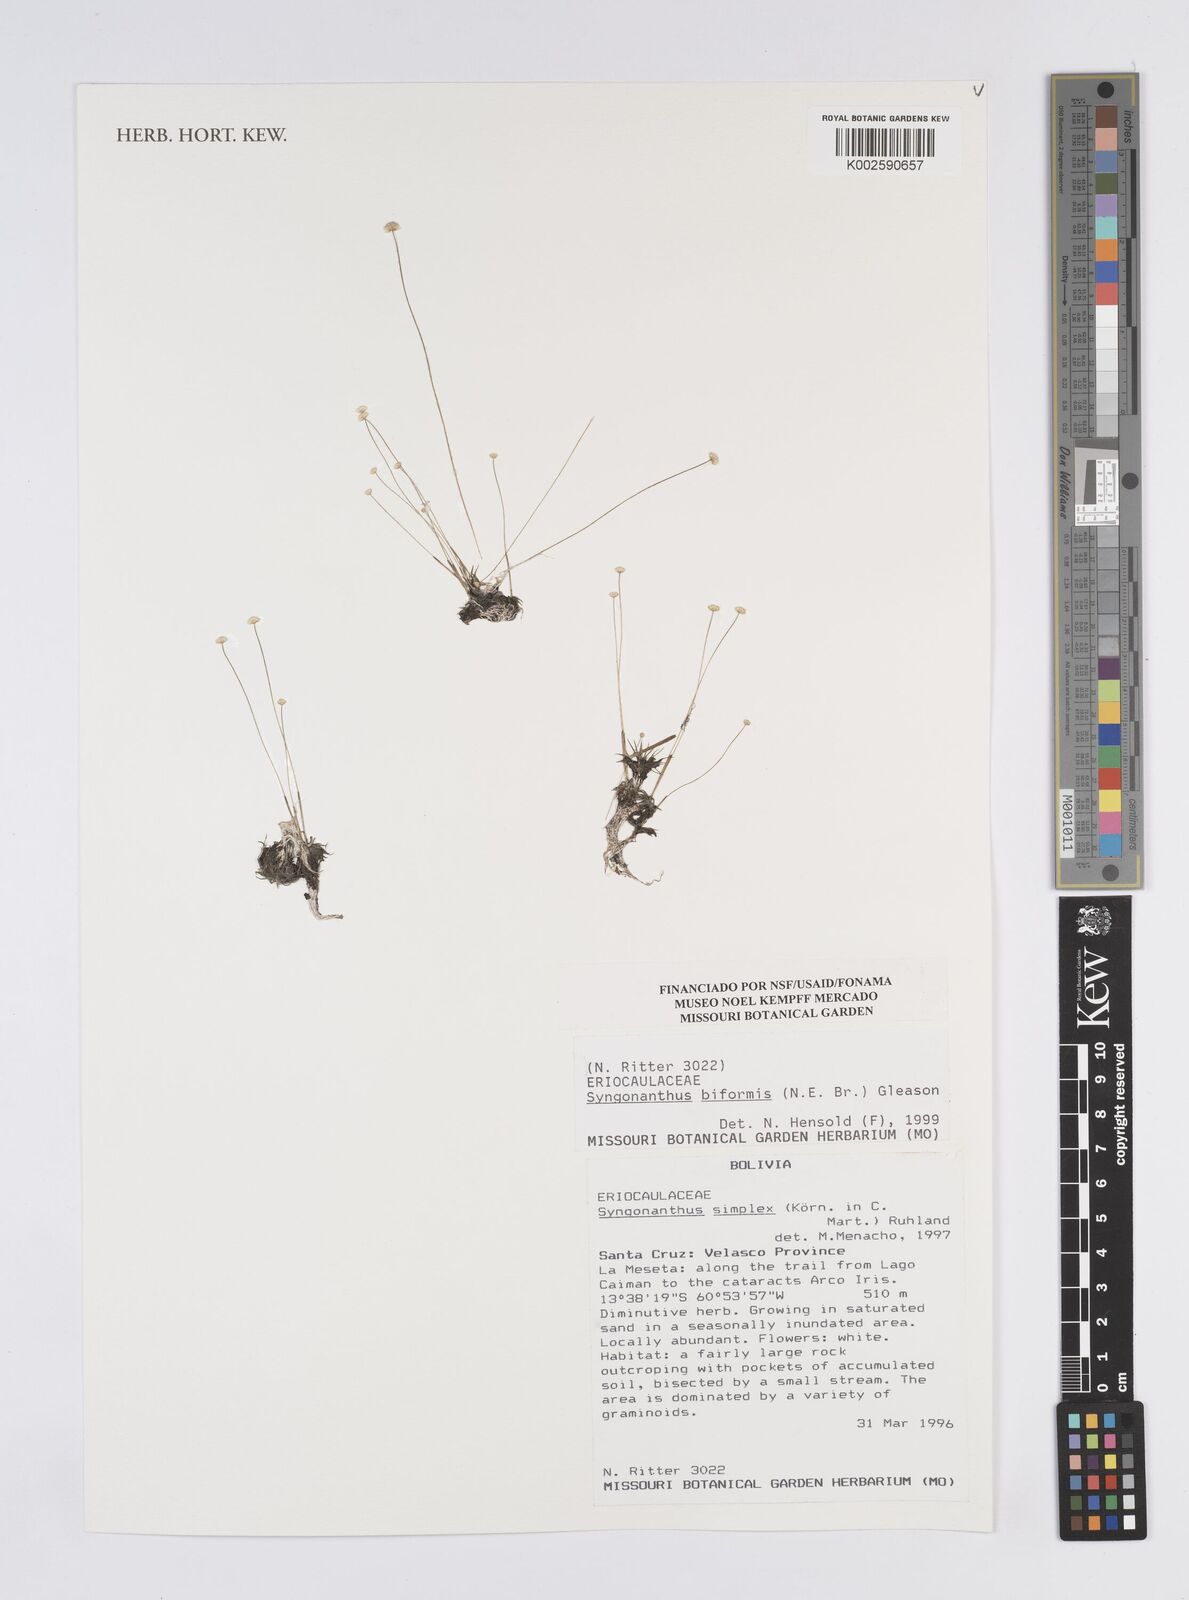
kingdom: Plantae
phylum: Tracheophyta
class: Liliopsida
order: Poales
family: Eriocaulaceae
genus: Syngonanthus
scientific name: Syngonanthus biformis
